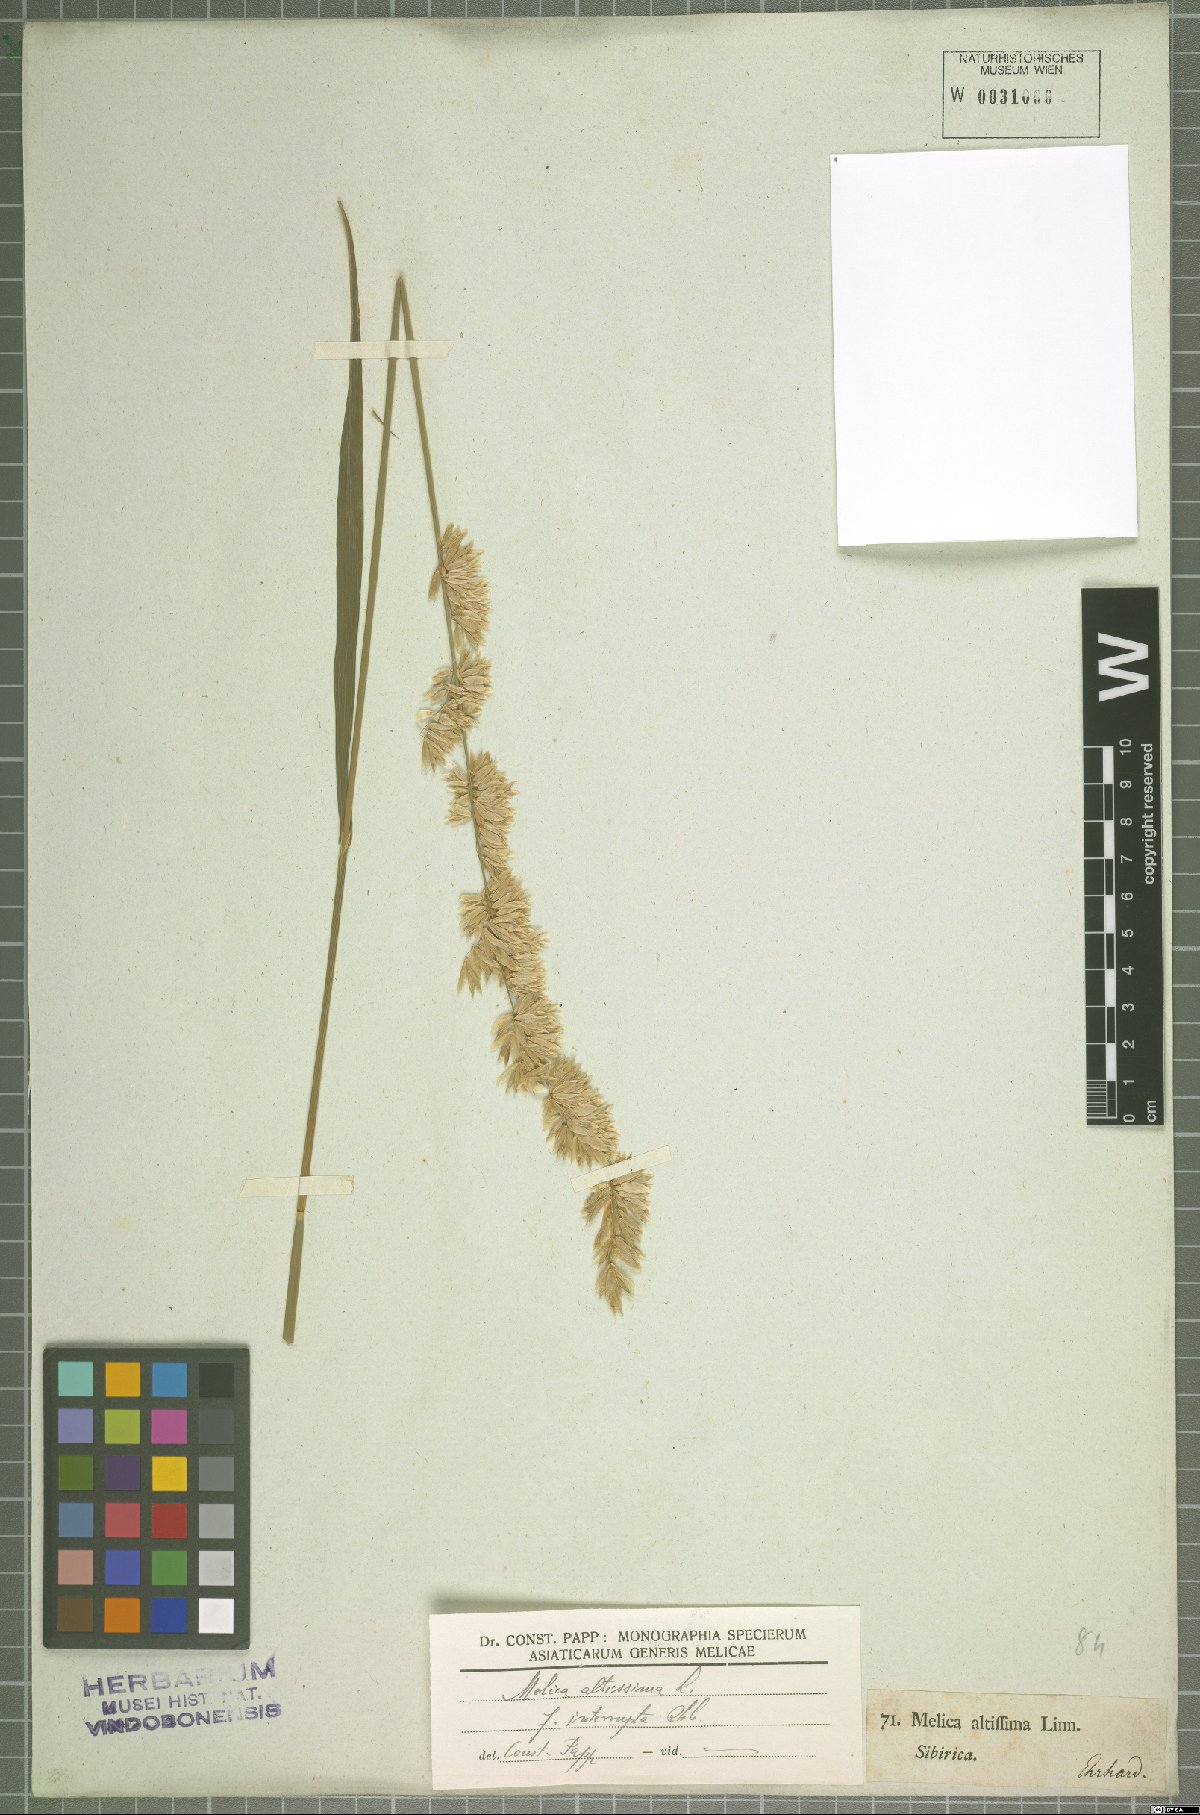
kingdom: Plantae
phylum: Tracheophyta
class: Liliopsida
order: Poales
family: Poaceae
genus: Melica
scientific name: Melica altissima
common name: Siberian melicgrass
